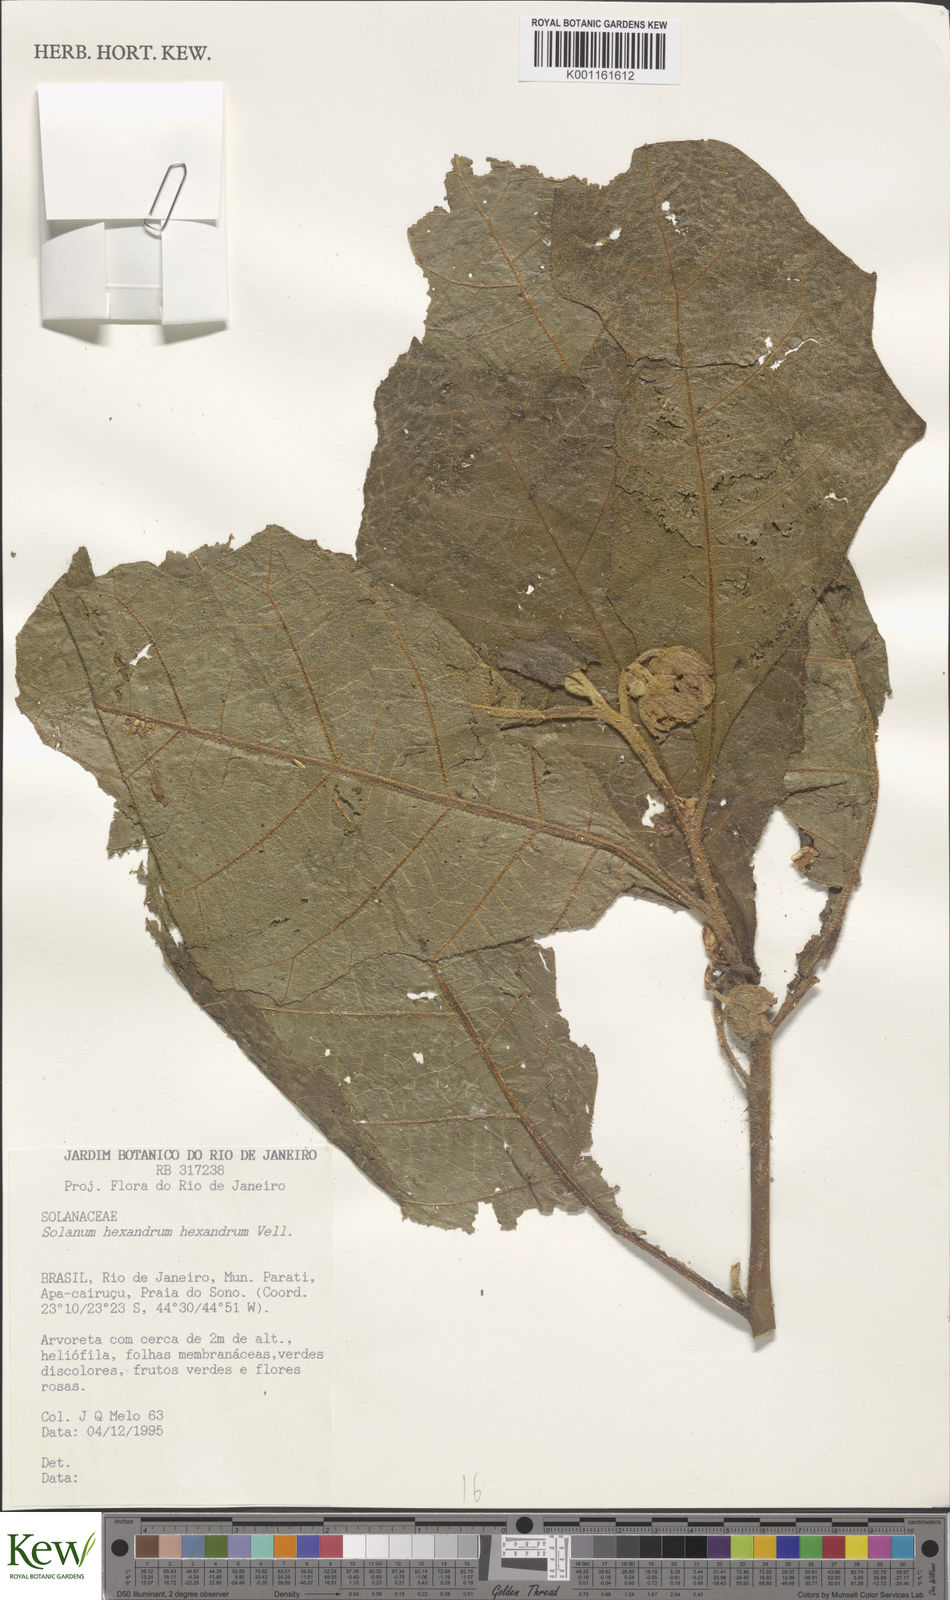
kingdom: Plantae
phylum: Tracheophyta
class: Magnoliopsida
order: Solanales
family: Solanaceae
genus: Solanum
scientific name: Solanum hexandrum
